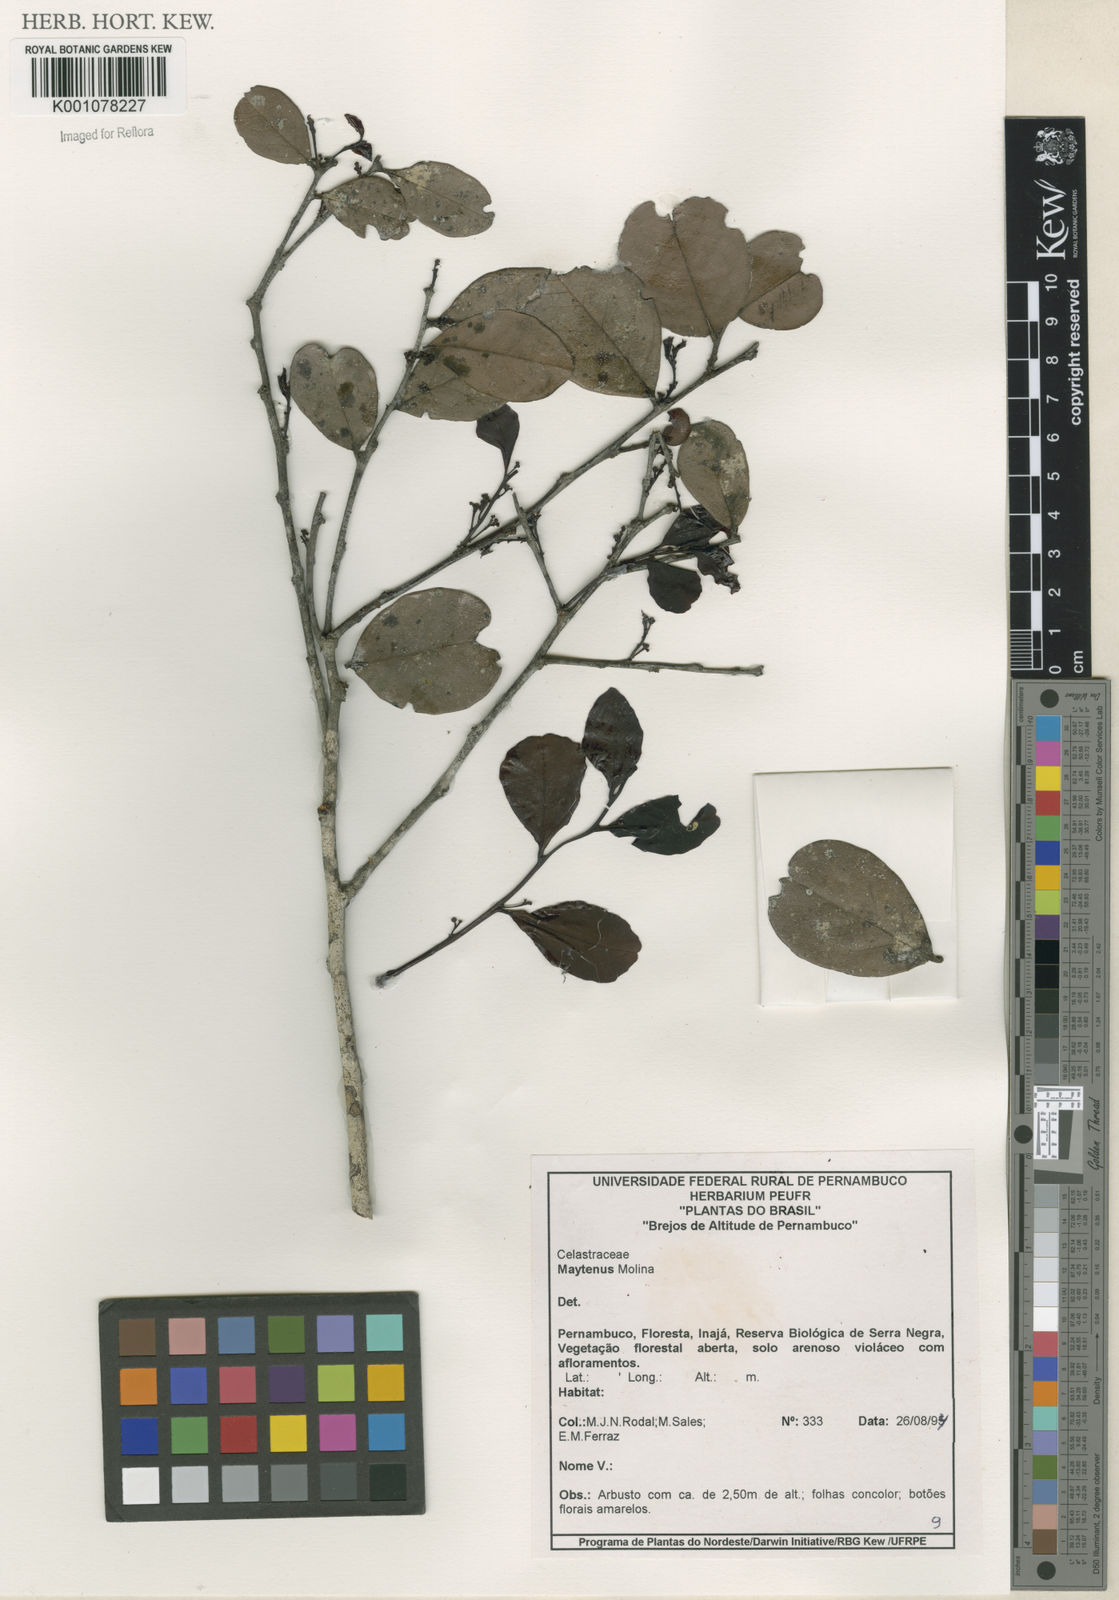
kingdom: Plantae
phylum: Tracheophyta
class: Magnoliopsida
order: Celastrales
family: Celastraceae
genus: Maytenus
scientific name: Maytenus
